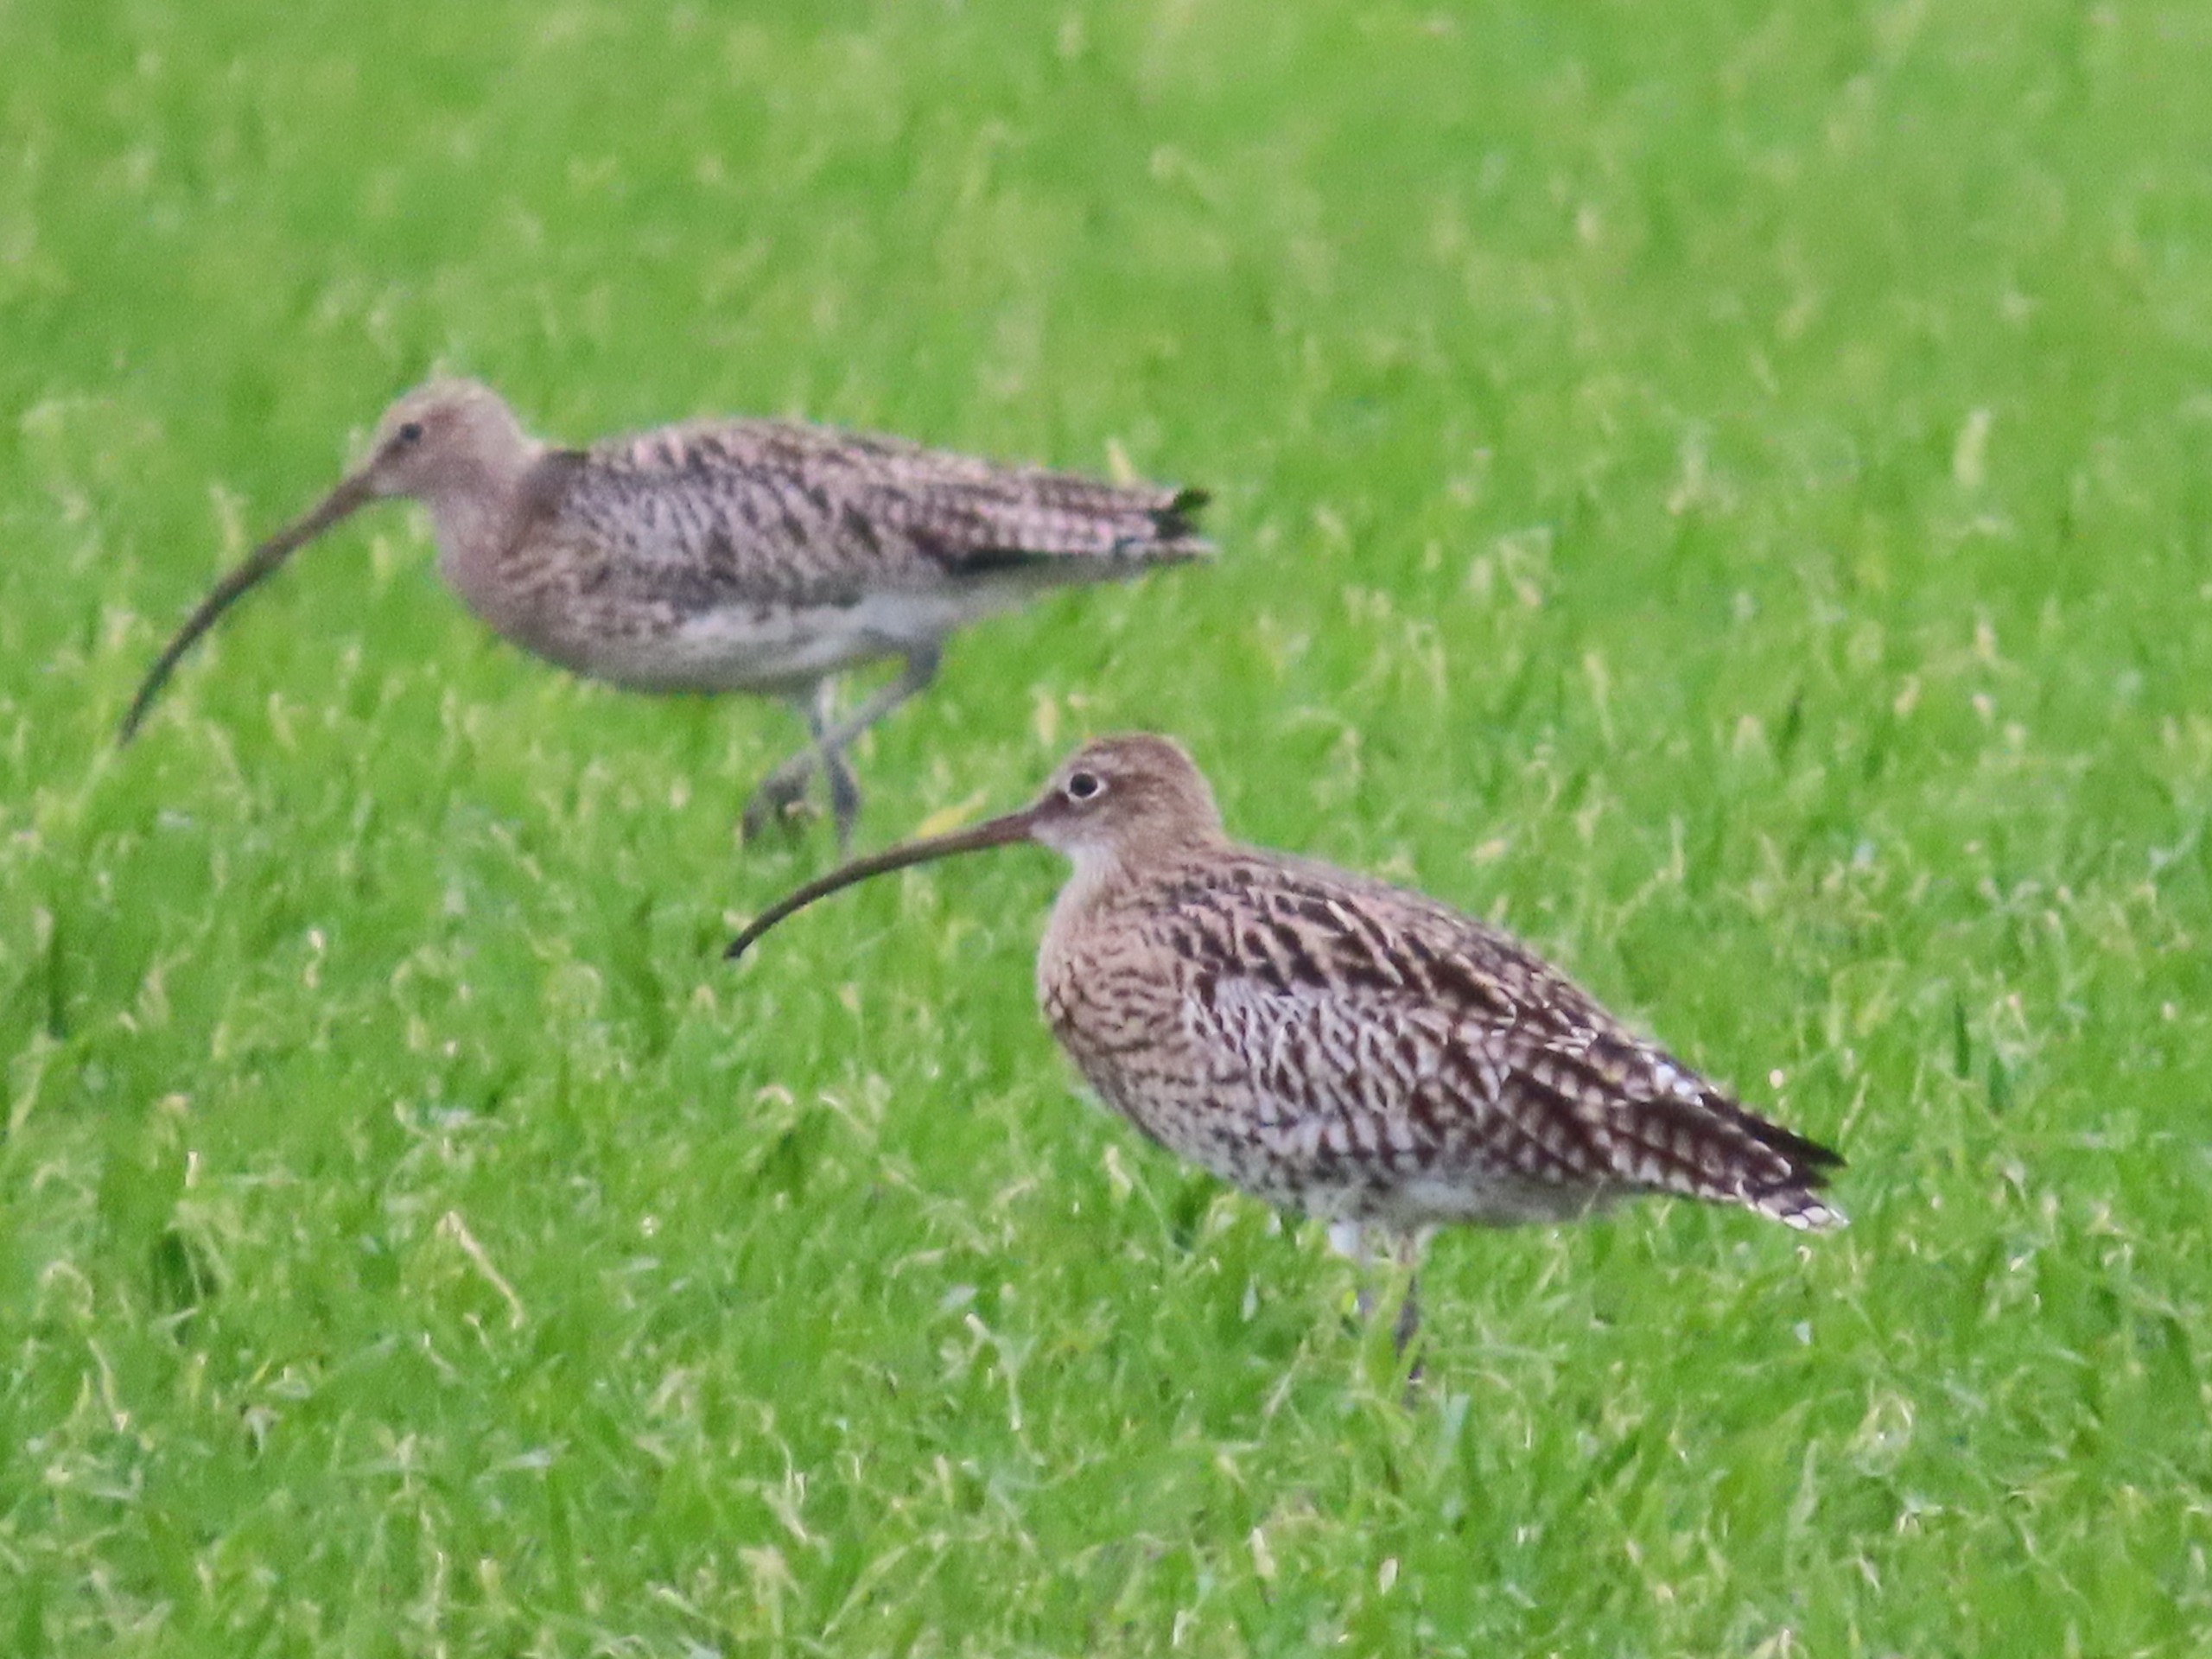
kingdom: Animalia
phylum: Chordata
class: Aves
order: Charadriiformes
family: Scolopacidae
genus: Numenius
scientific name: Numenius arquata
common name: Storspove
